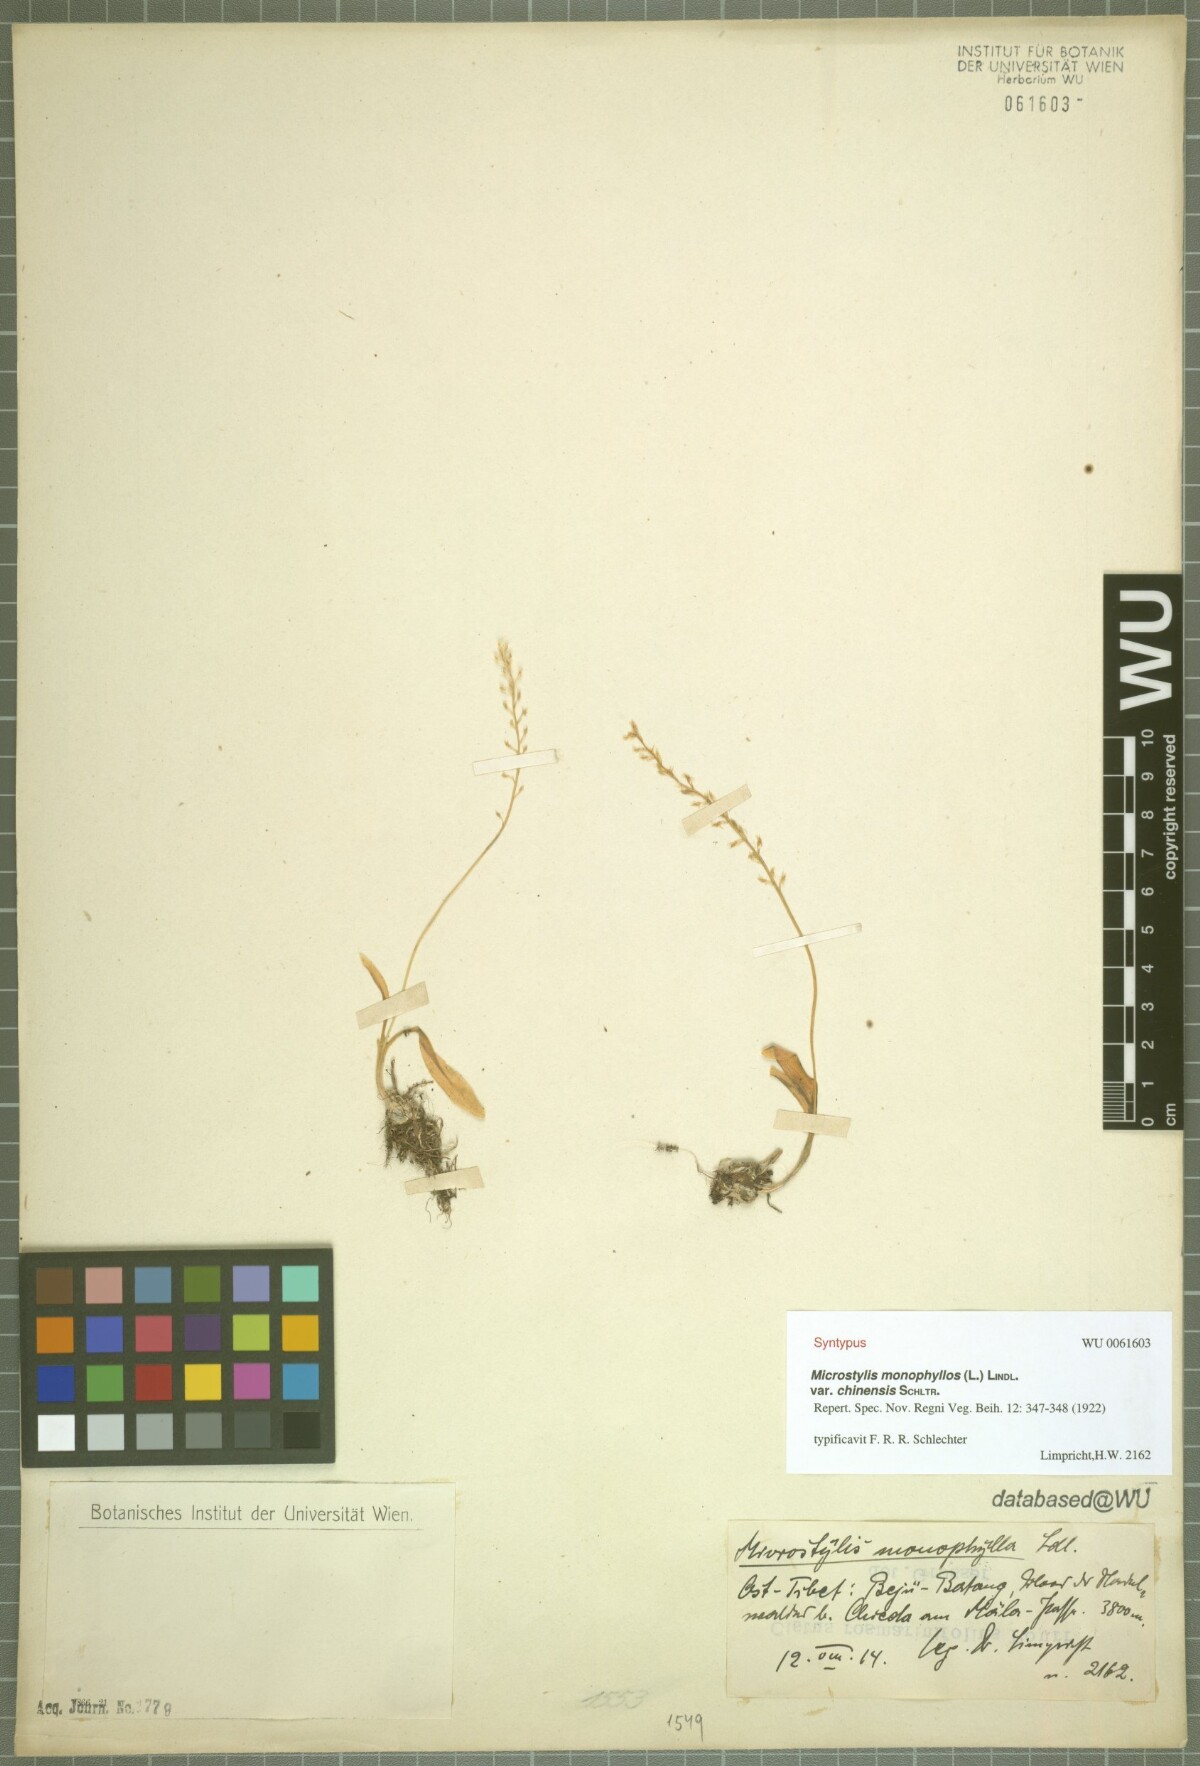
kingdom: Plantae
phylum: Tracheophyta
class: Liliopsida
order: Asparagales
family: Orchidaceae
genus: Malaxis
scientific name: Malaxis monophyllos
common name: White adder's-mouth
